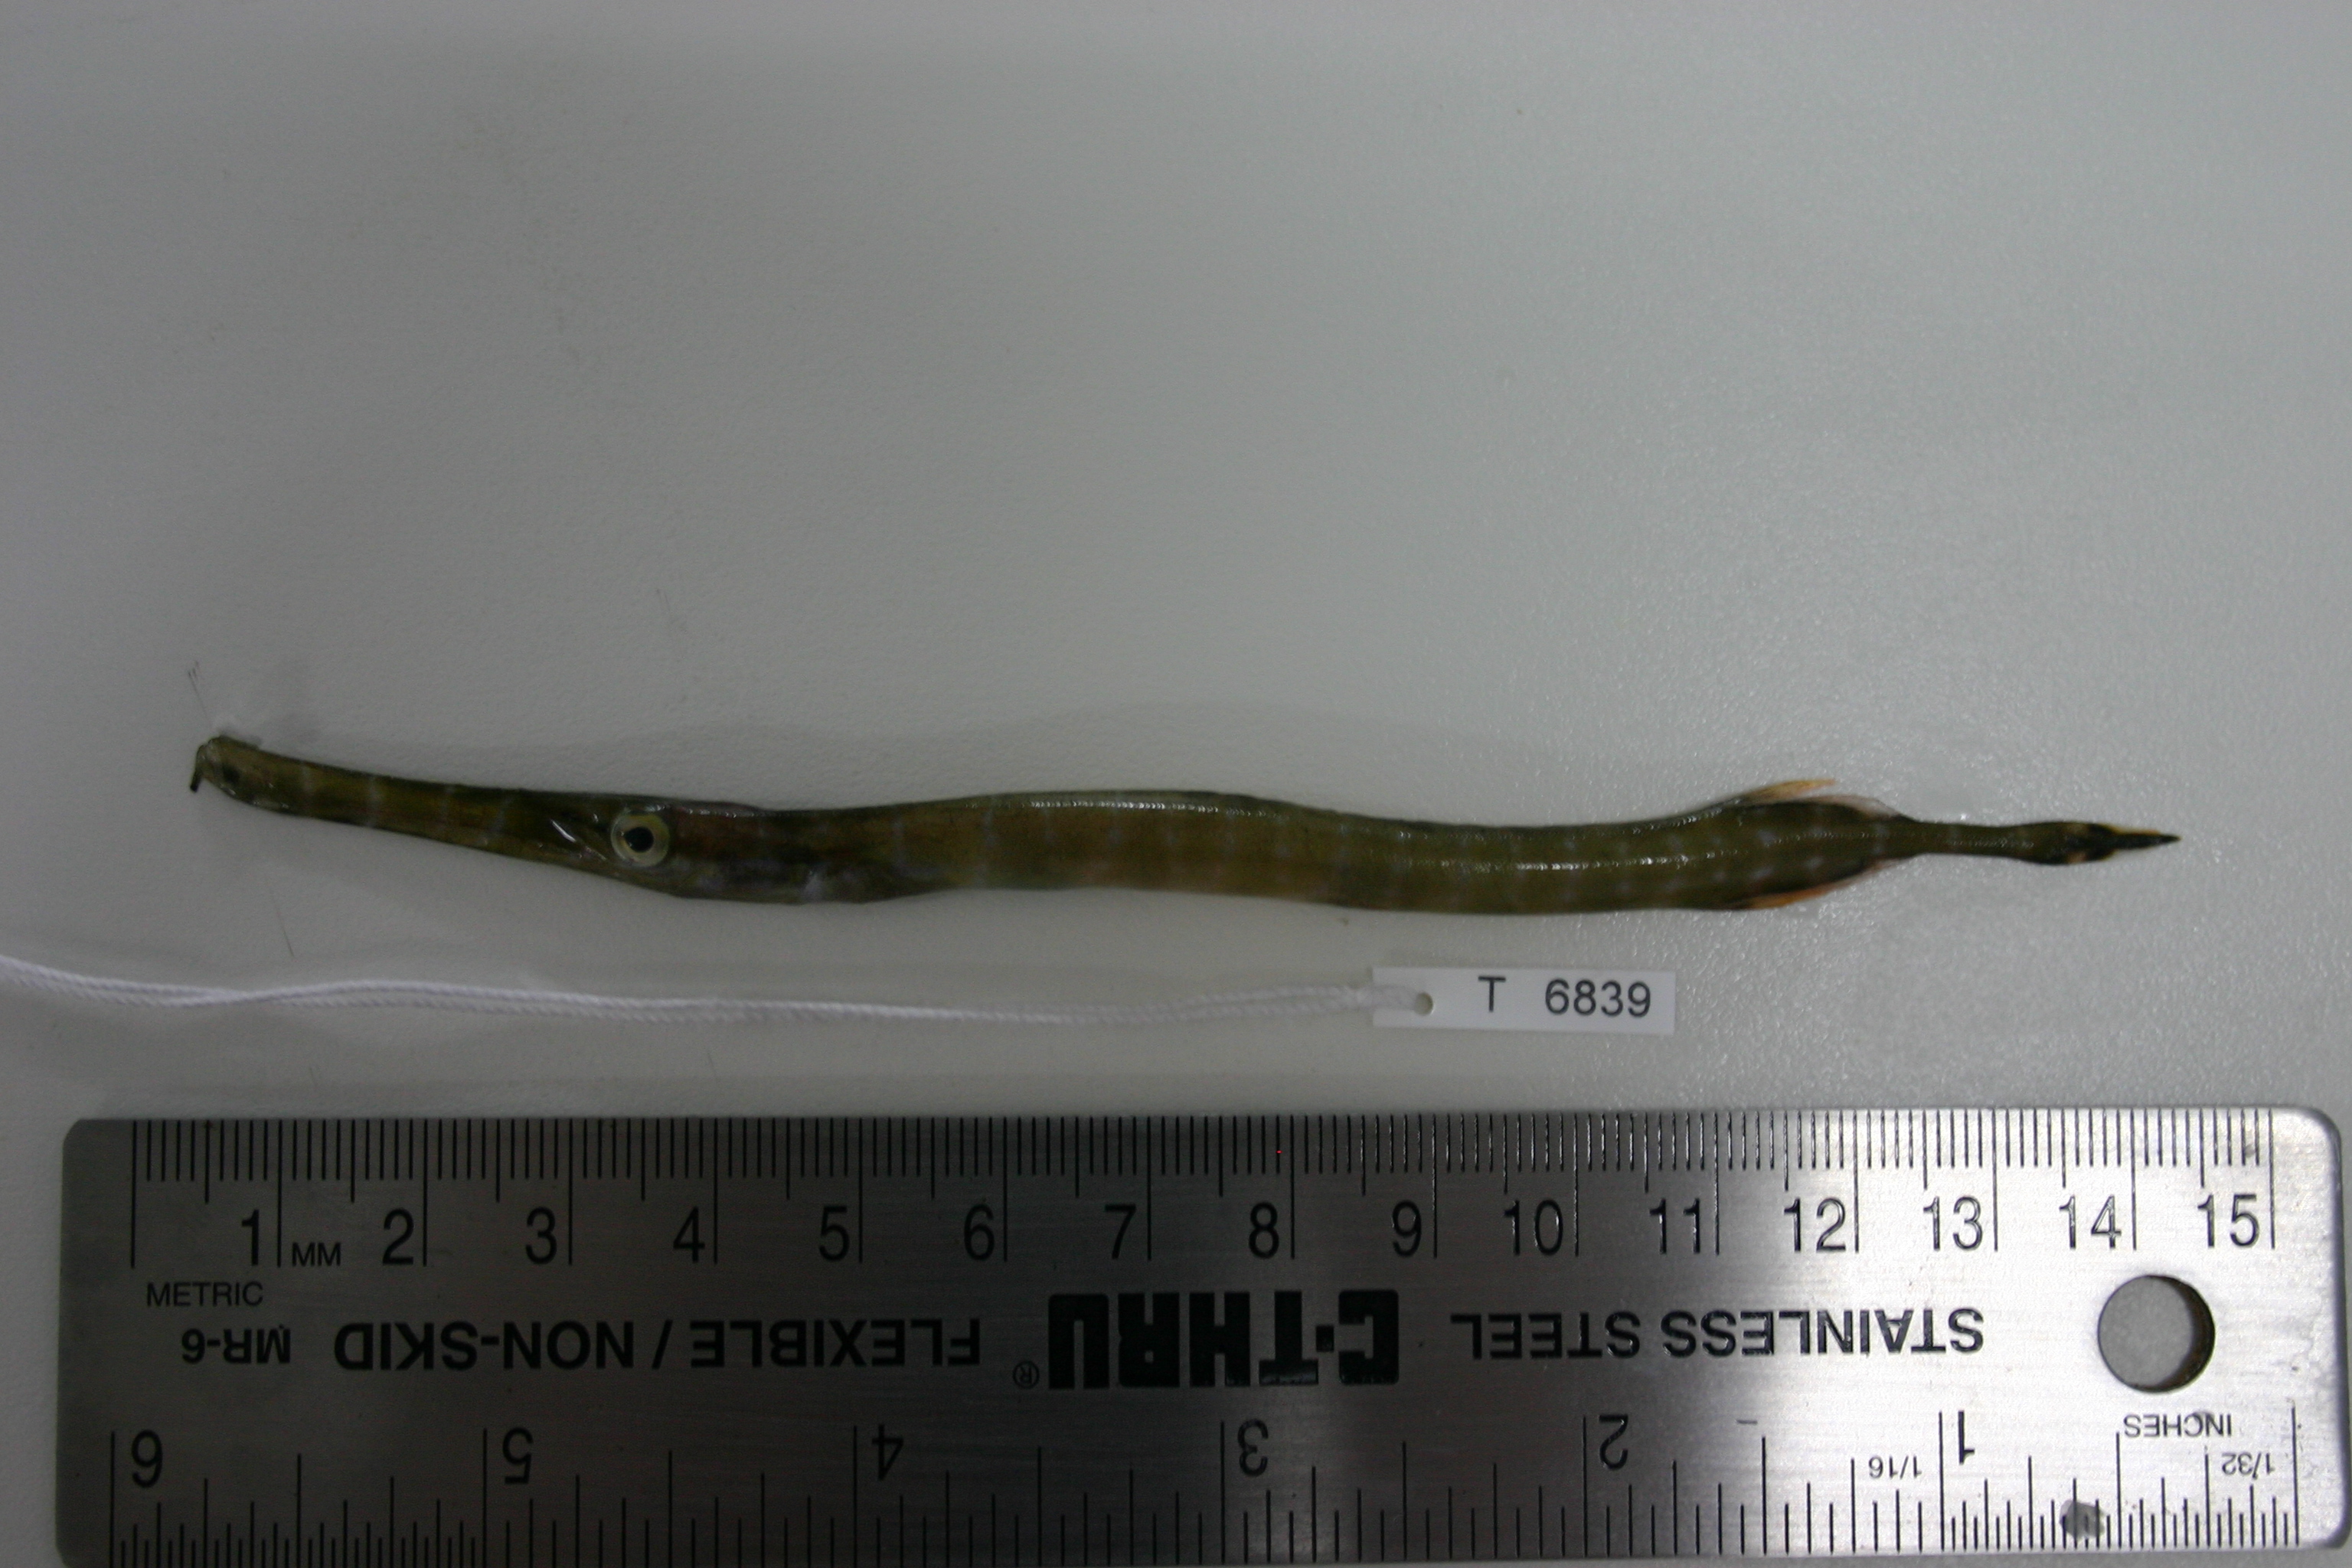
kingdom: Animalia
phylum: Chordata
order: Syngnathiformes
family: Aulostomidae
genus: Aulostomus
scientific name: Aulostomus chinensis
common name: Chinese trumpetfish
